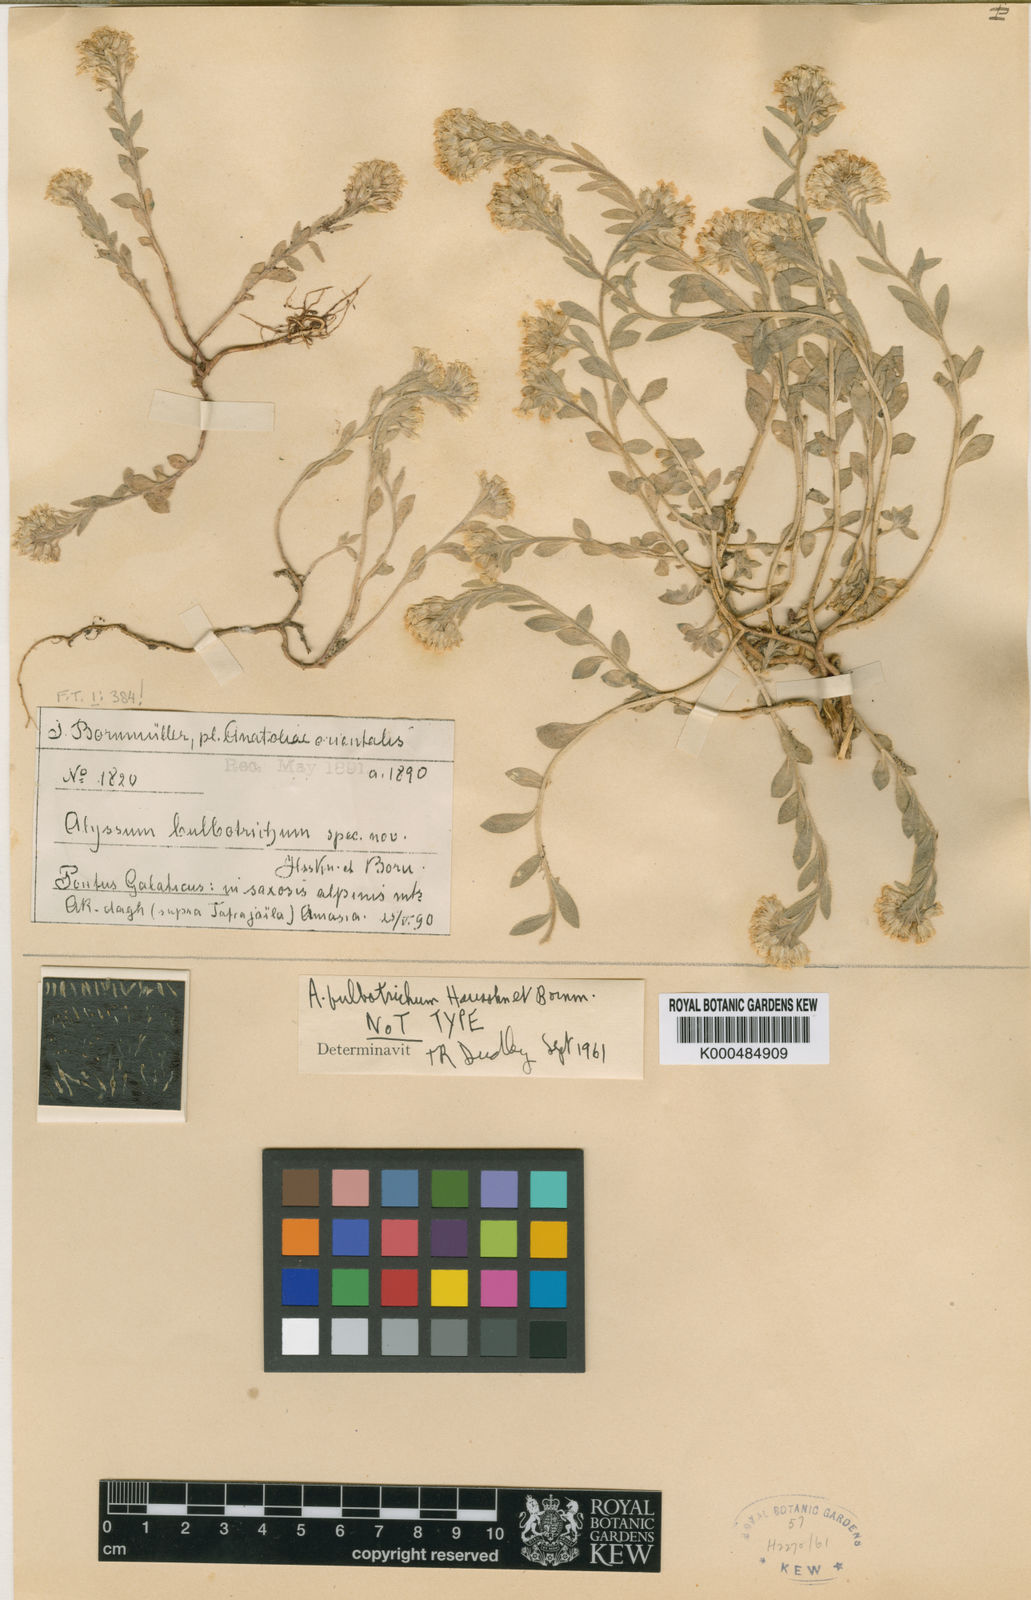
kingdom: Plantae
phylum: Tracheophyta
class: Magnoliopsida
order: Brassicales
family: Brassicaceae
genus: Alyssum
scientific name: Alyssum bulbotrichum
